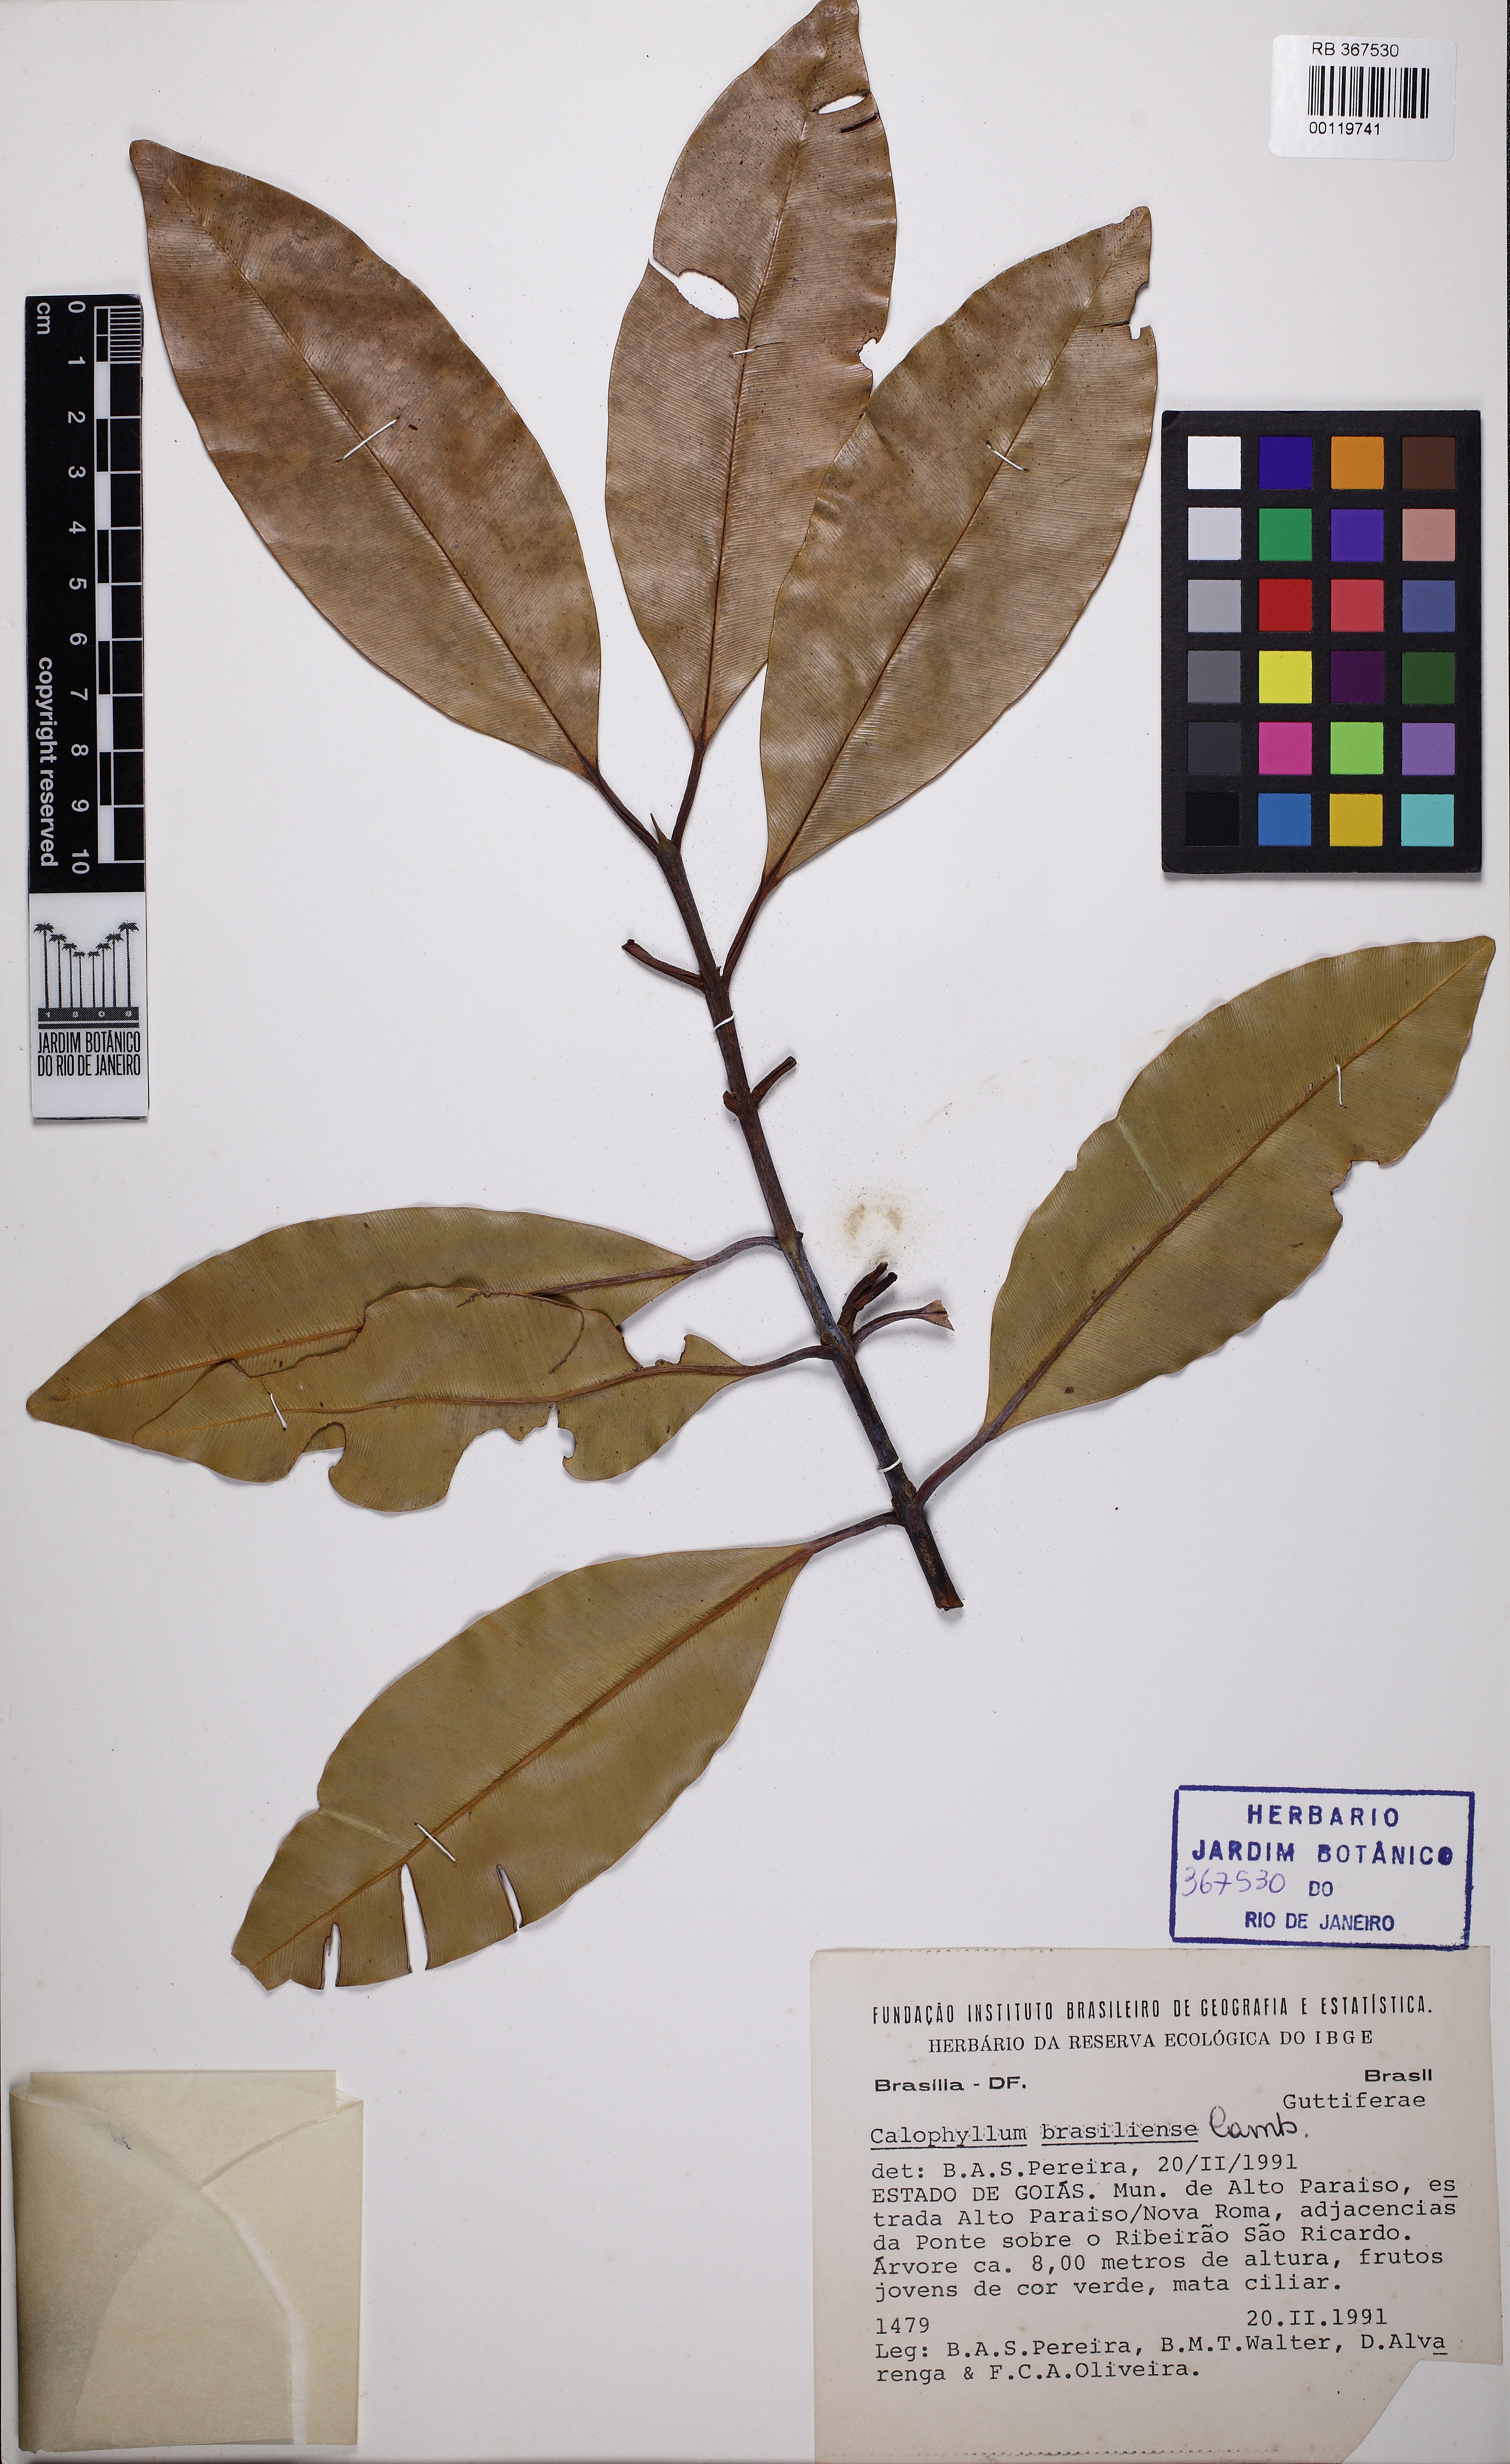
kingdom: Plantae
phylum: Tracheophyta
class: Magnoliopsida
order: Malpighiales
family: Calophyllaceae
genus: Calophyllum
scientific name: Calophyllum brasiliense
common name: Santa maria
